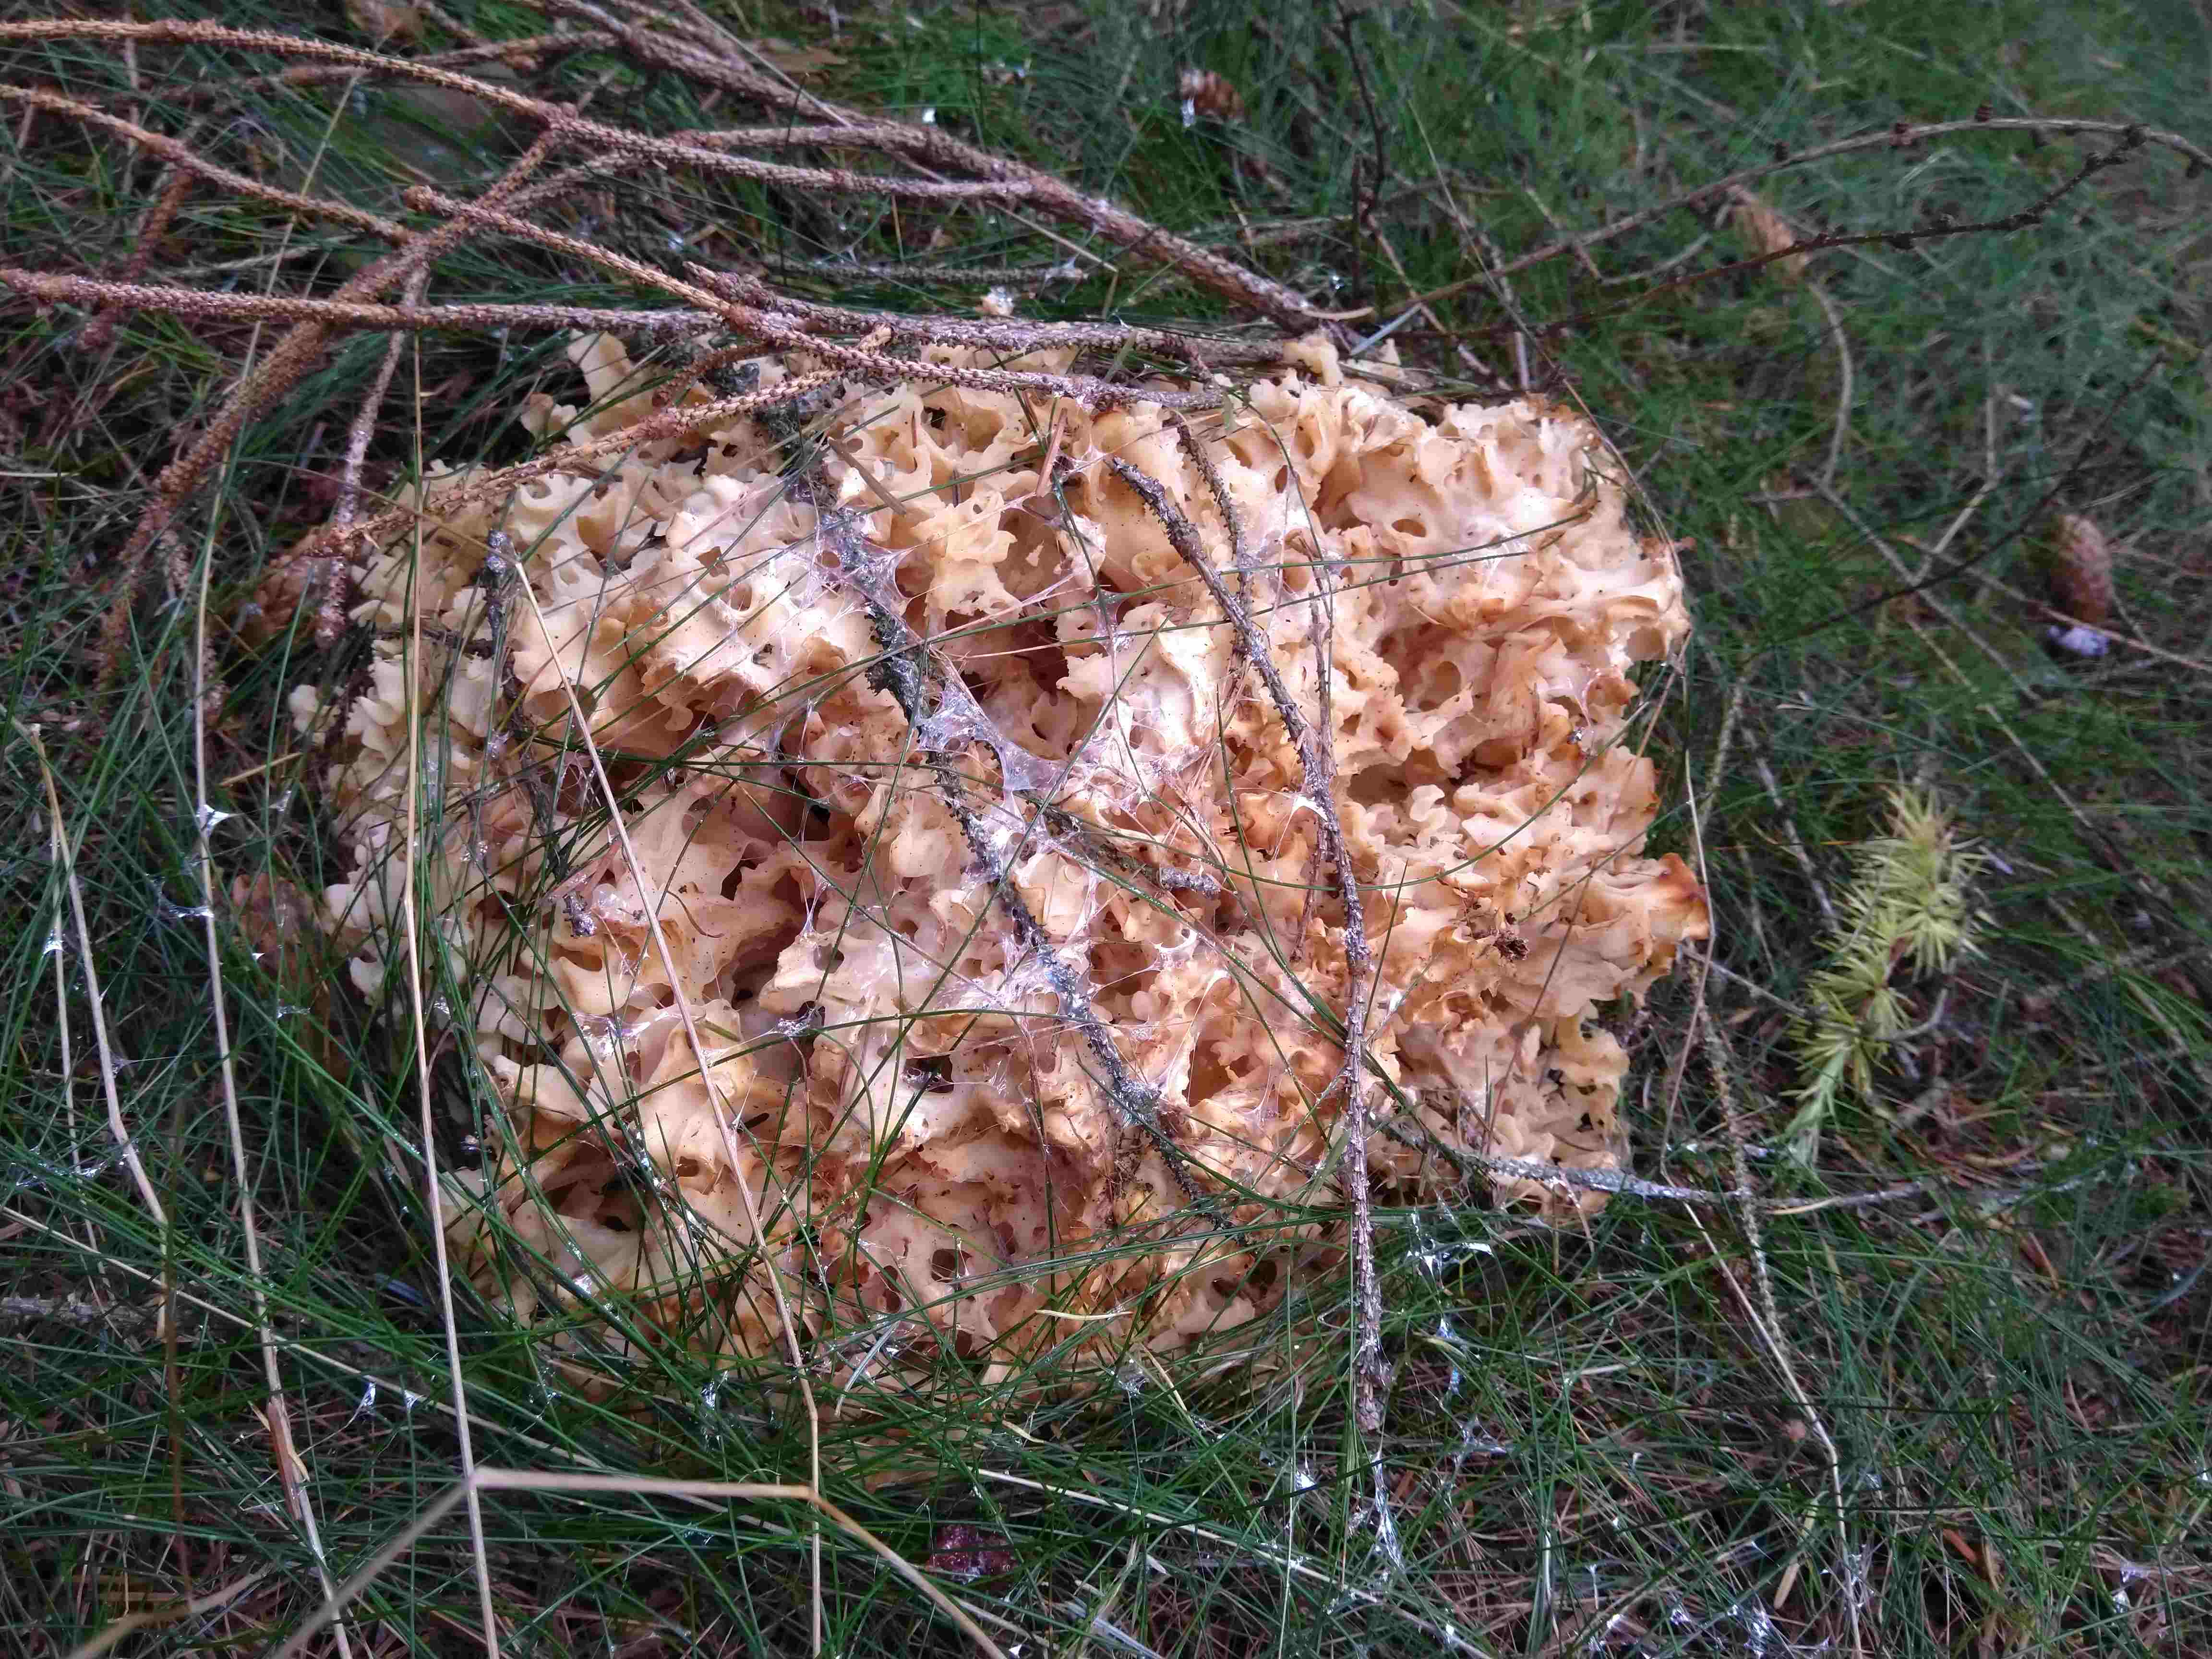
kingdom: Fungi
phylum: Basidiomycota
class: Agaricomycetes
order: Polyporales
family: Sparassidaceae
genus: Sparassis
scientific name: Sparassis crispa
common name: kruset blomkålssvamp
